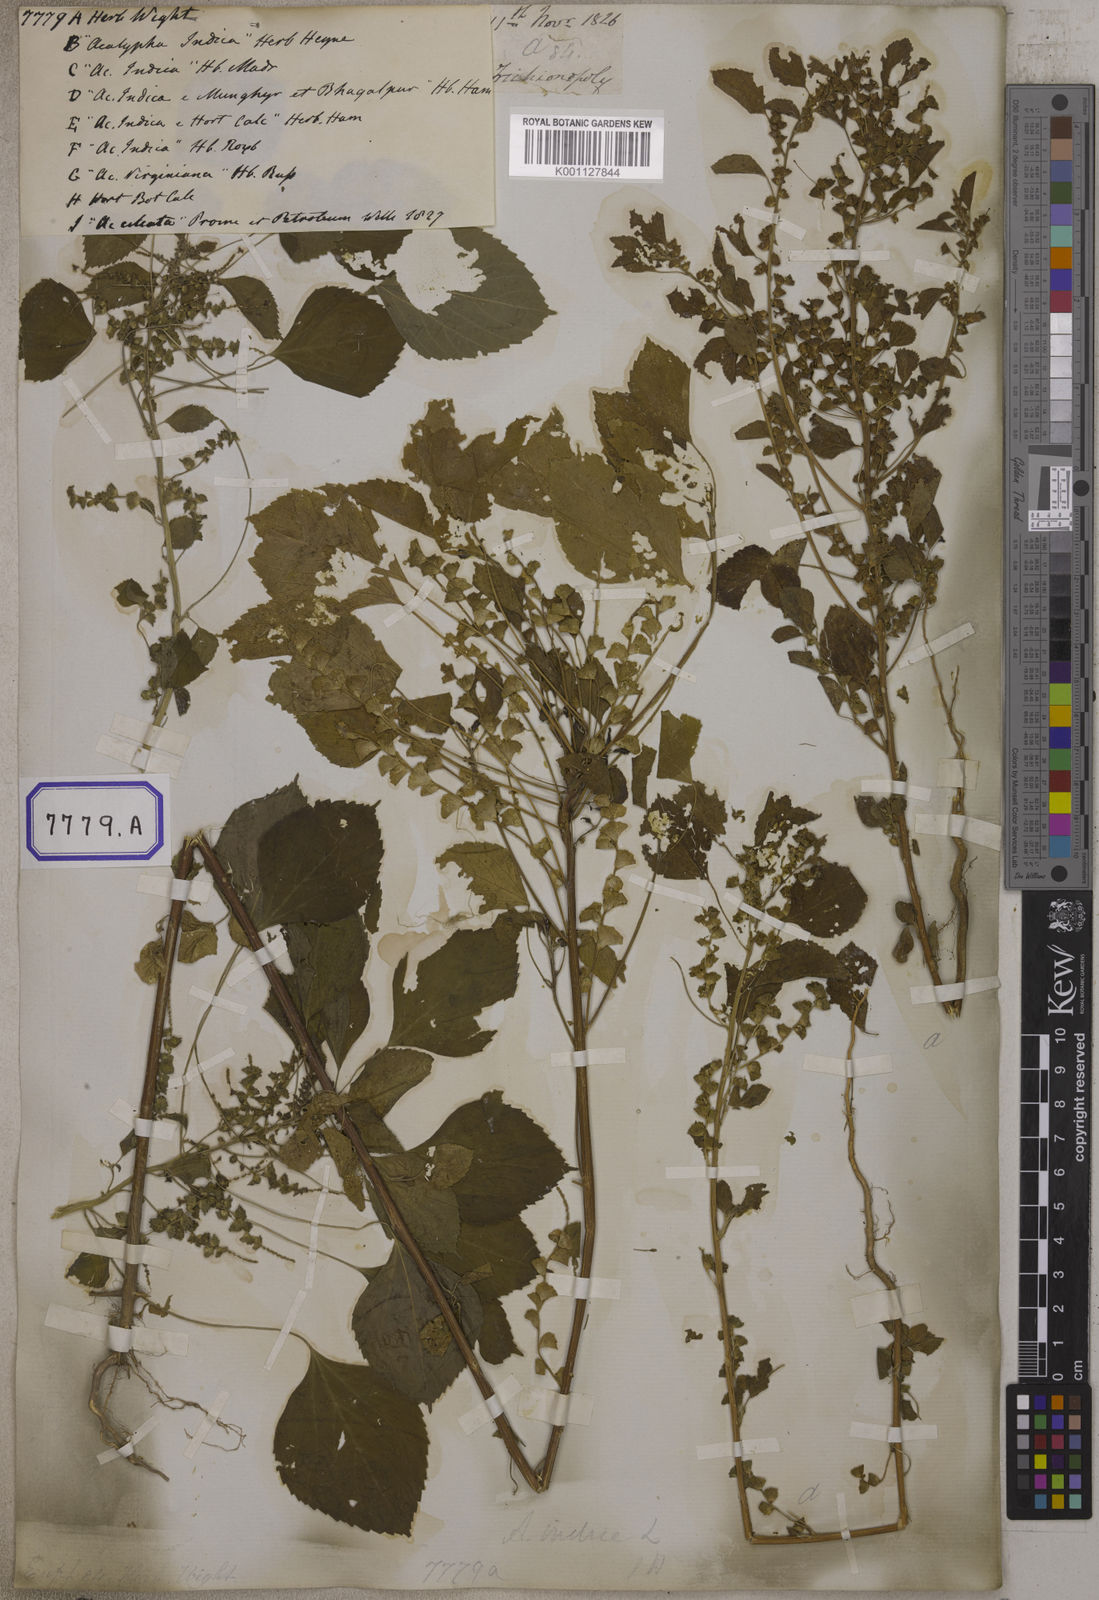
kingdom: Plantae
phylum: Tracheophyta
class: Magnoliopsida
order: Malpighiales
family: Euphorbiaceae
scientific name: Euphorbiaceae
